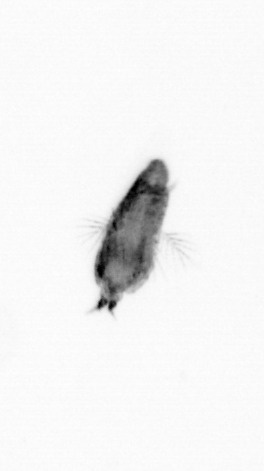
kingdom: Animalia
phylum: Arthropoda
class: Copepoda
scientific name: Copepoda
